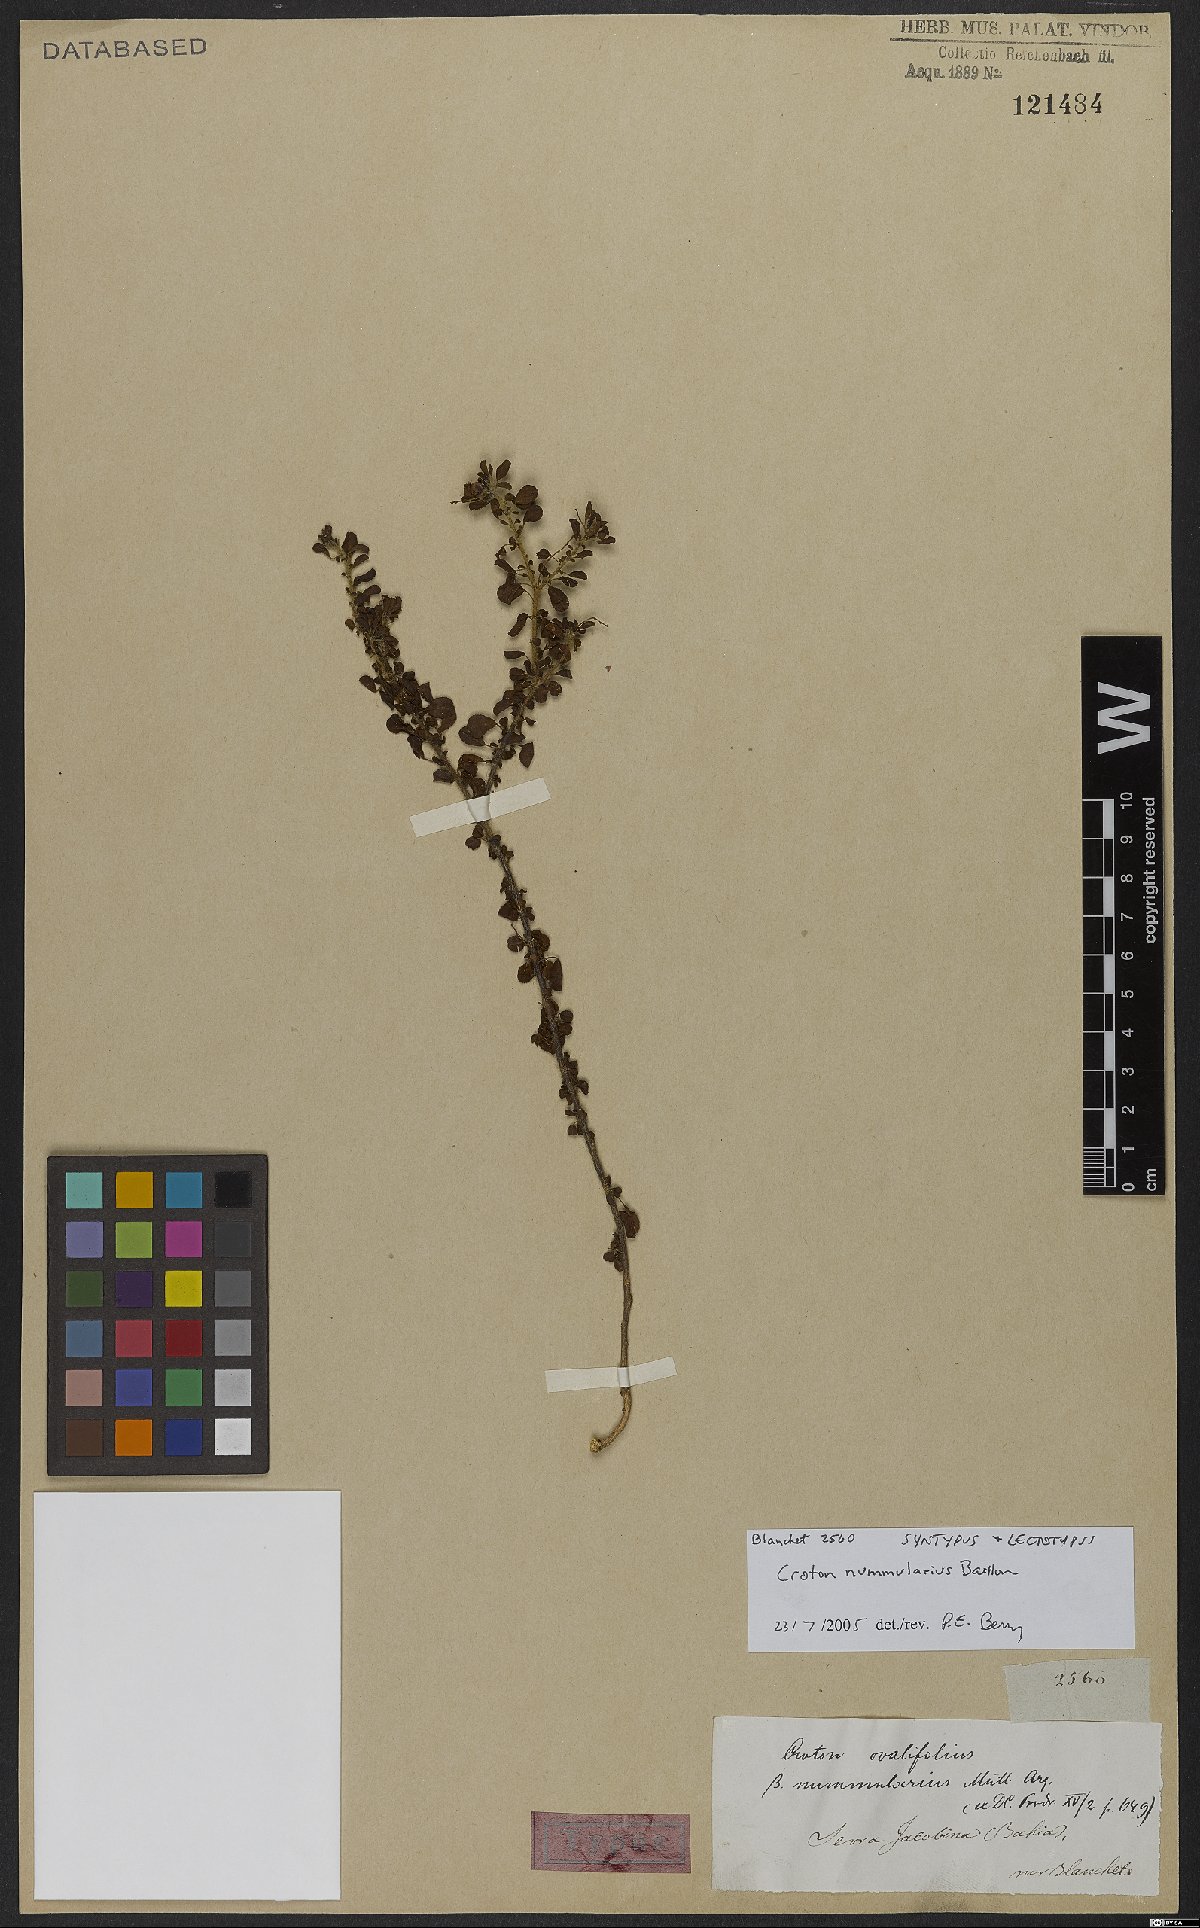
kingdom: Plantae
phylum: Tracheophyta
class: Magnoliopsida
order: Malpighiales
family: Euphorbiaceae
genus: Croton
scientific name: Croton nummularius
